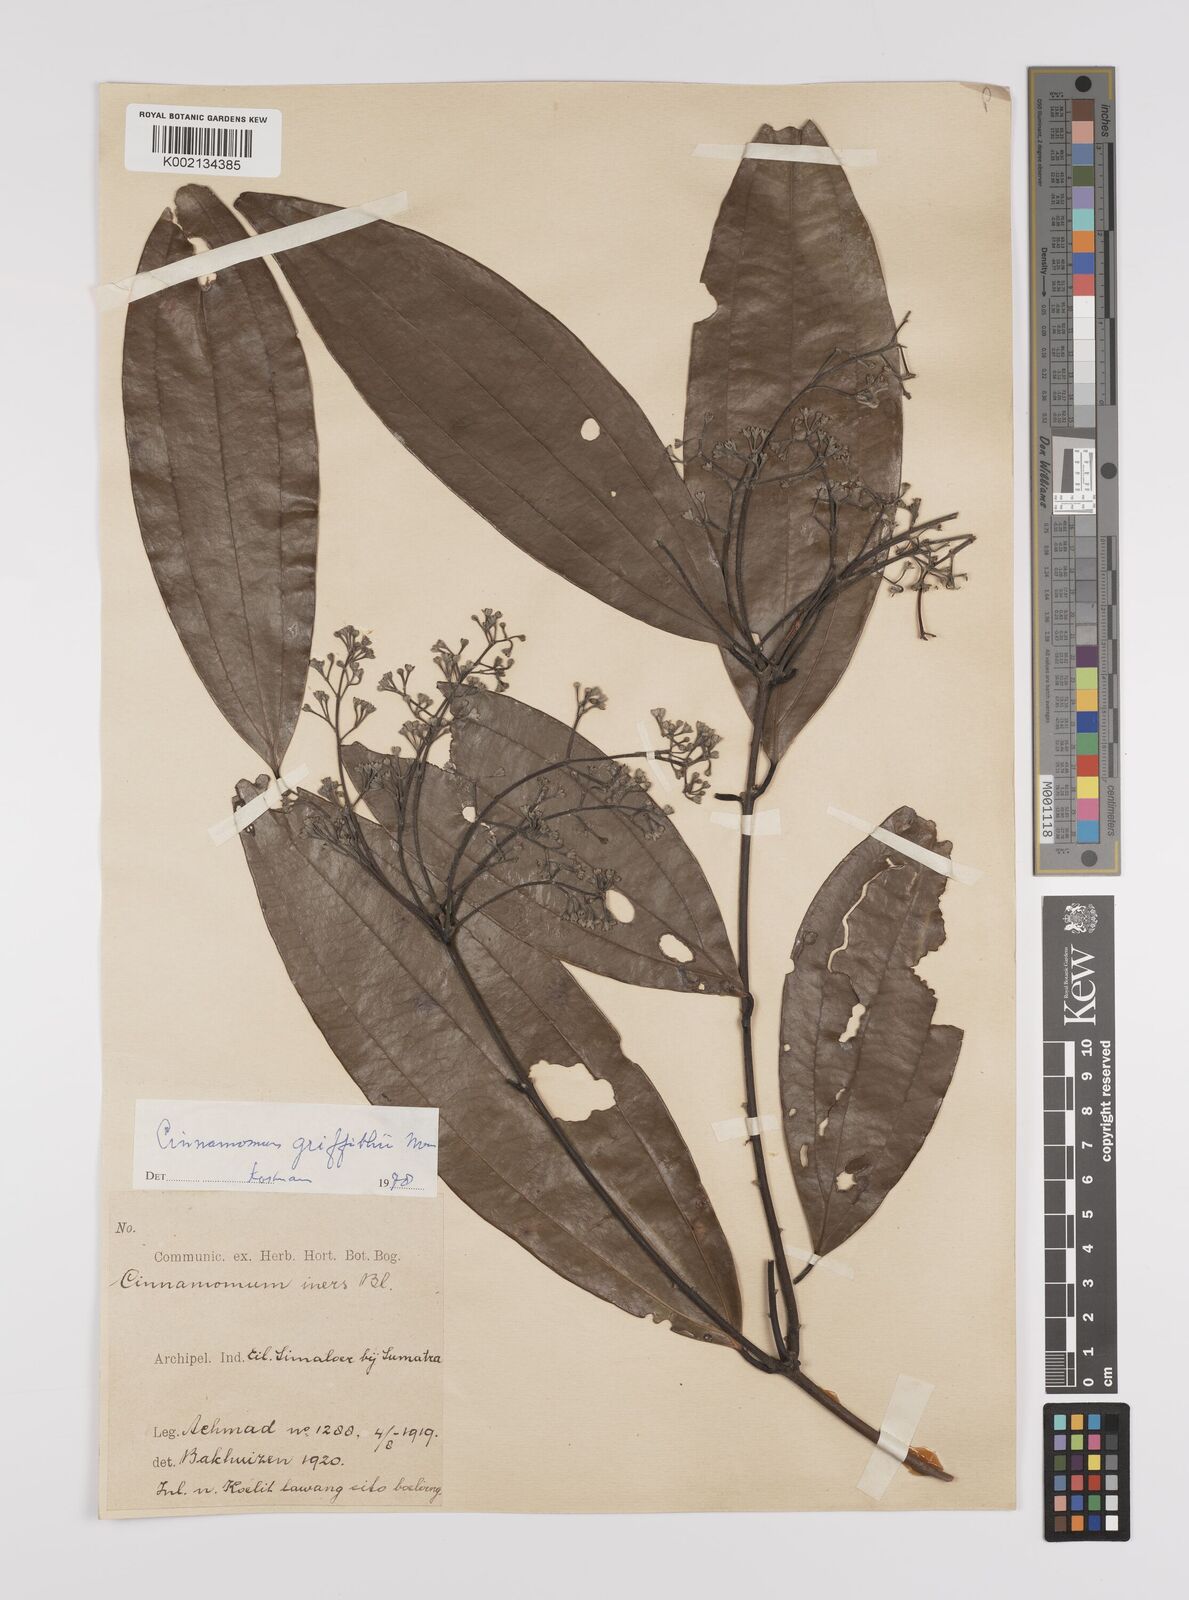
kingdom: Plantae
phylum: Tracheophyta
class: Magnoliopsida
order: Laurales
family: Lauraceae
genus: Cinnamomum
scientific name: Cinnamomum iners
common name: Wild cinnamon
